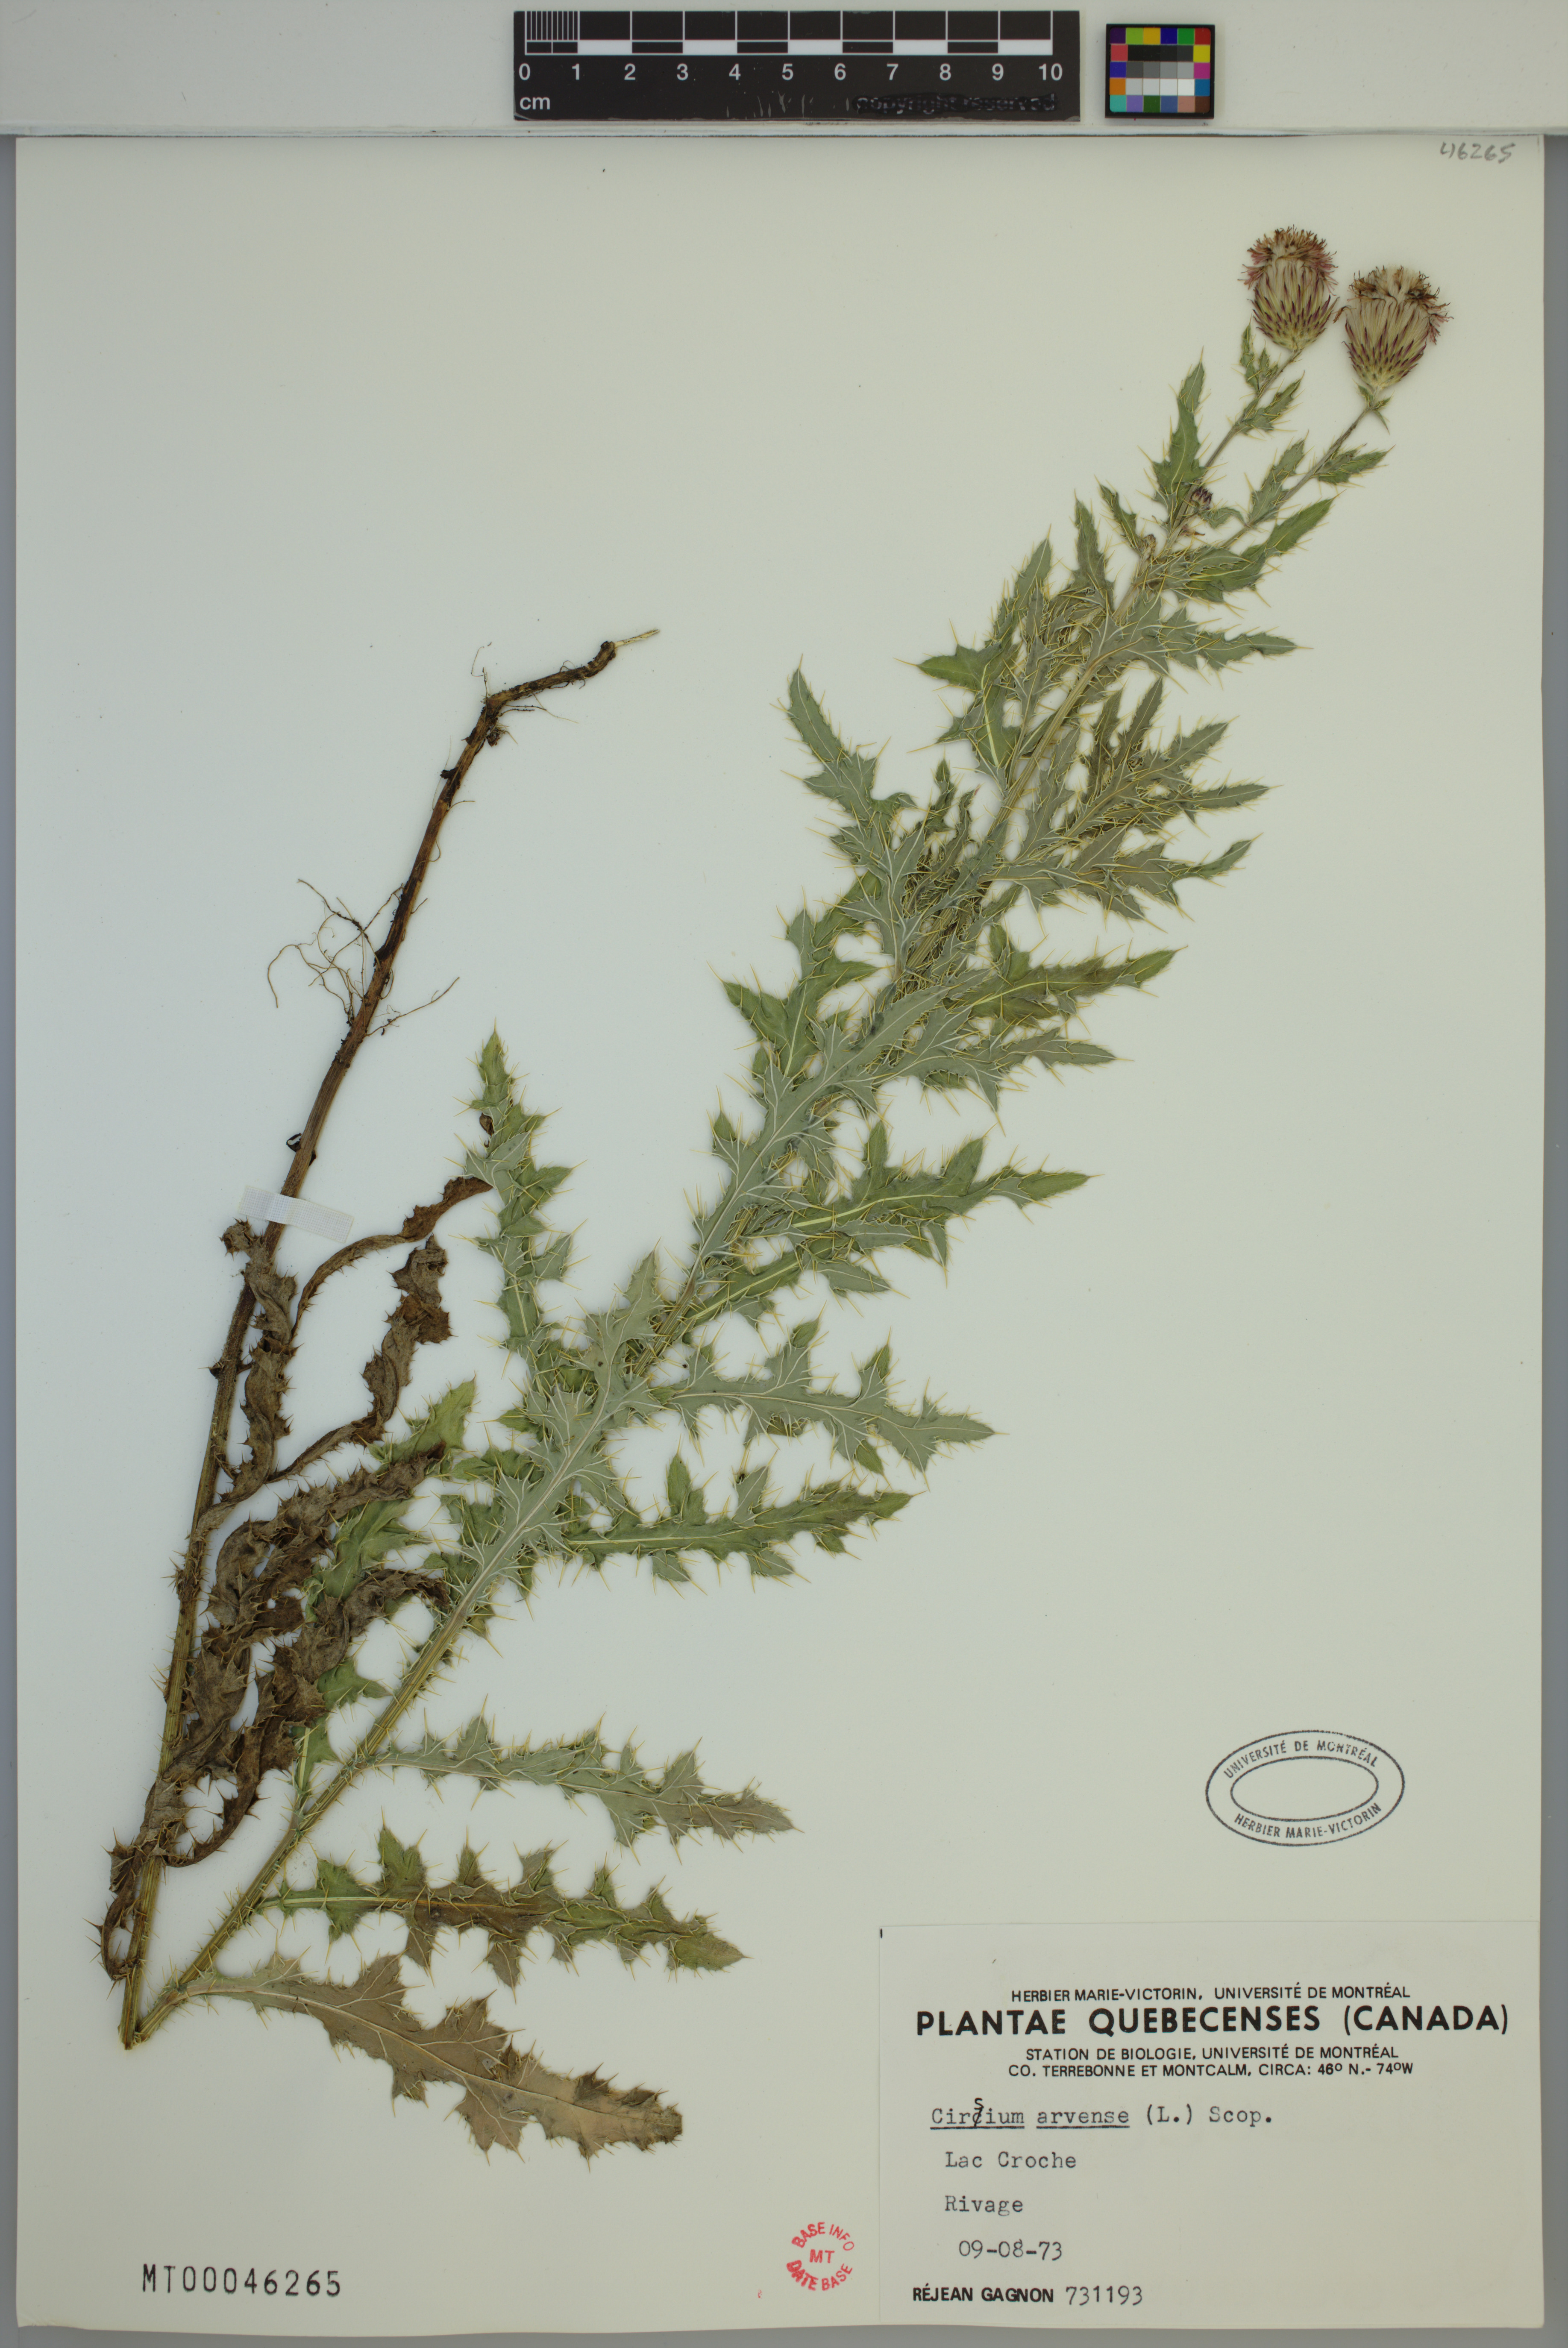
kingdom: Plantae
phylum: Tracheophyta
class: Magnoliopsida
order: Asterales
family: Asteraceae
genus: Cirsium
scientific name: Cirsium arvense
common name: Creeping thistle
